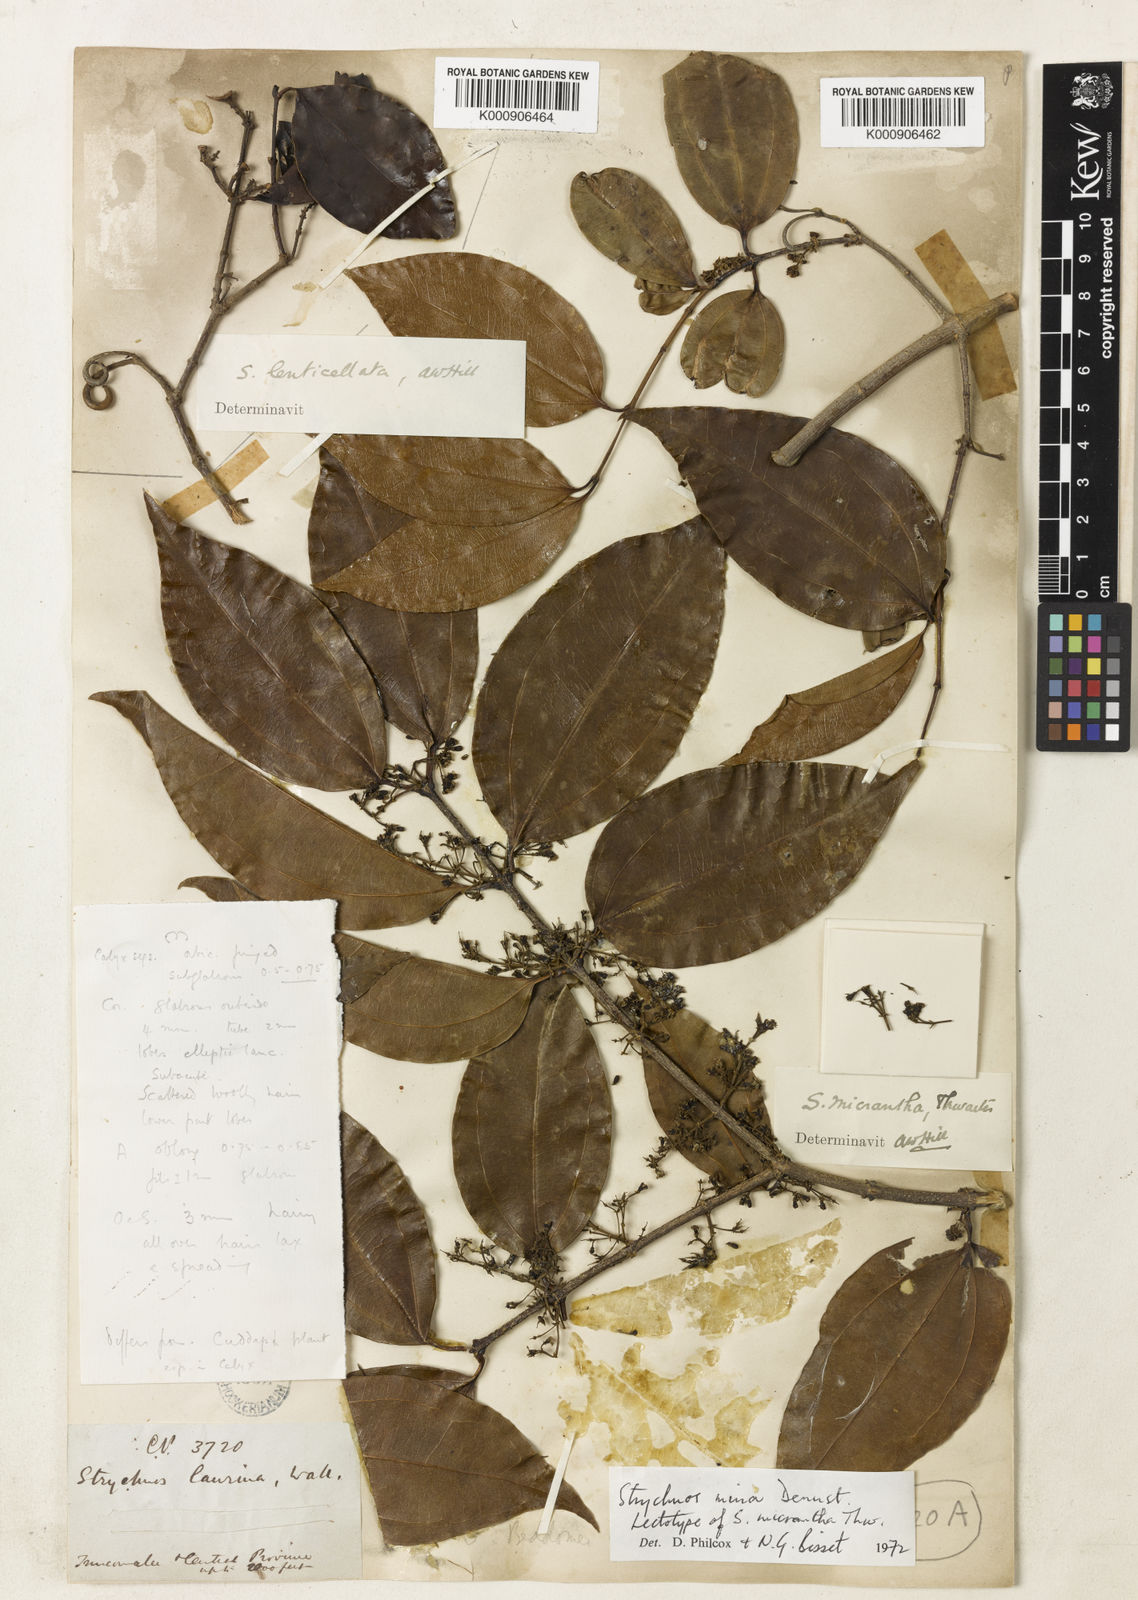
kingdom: Plantae
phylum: Tracheophyta
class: Magnoliopsida
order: Gentianales
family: Loganiaceae
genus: Strychnos
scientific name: Strychnos minor
